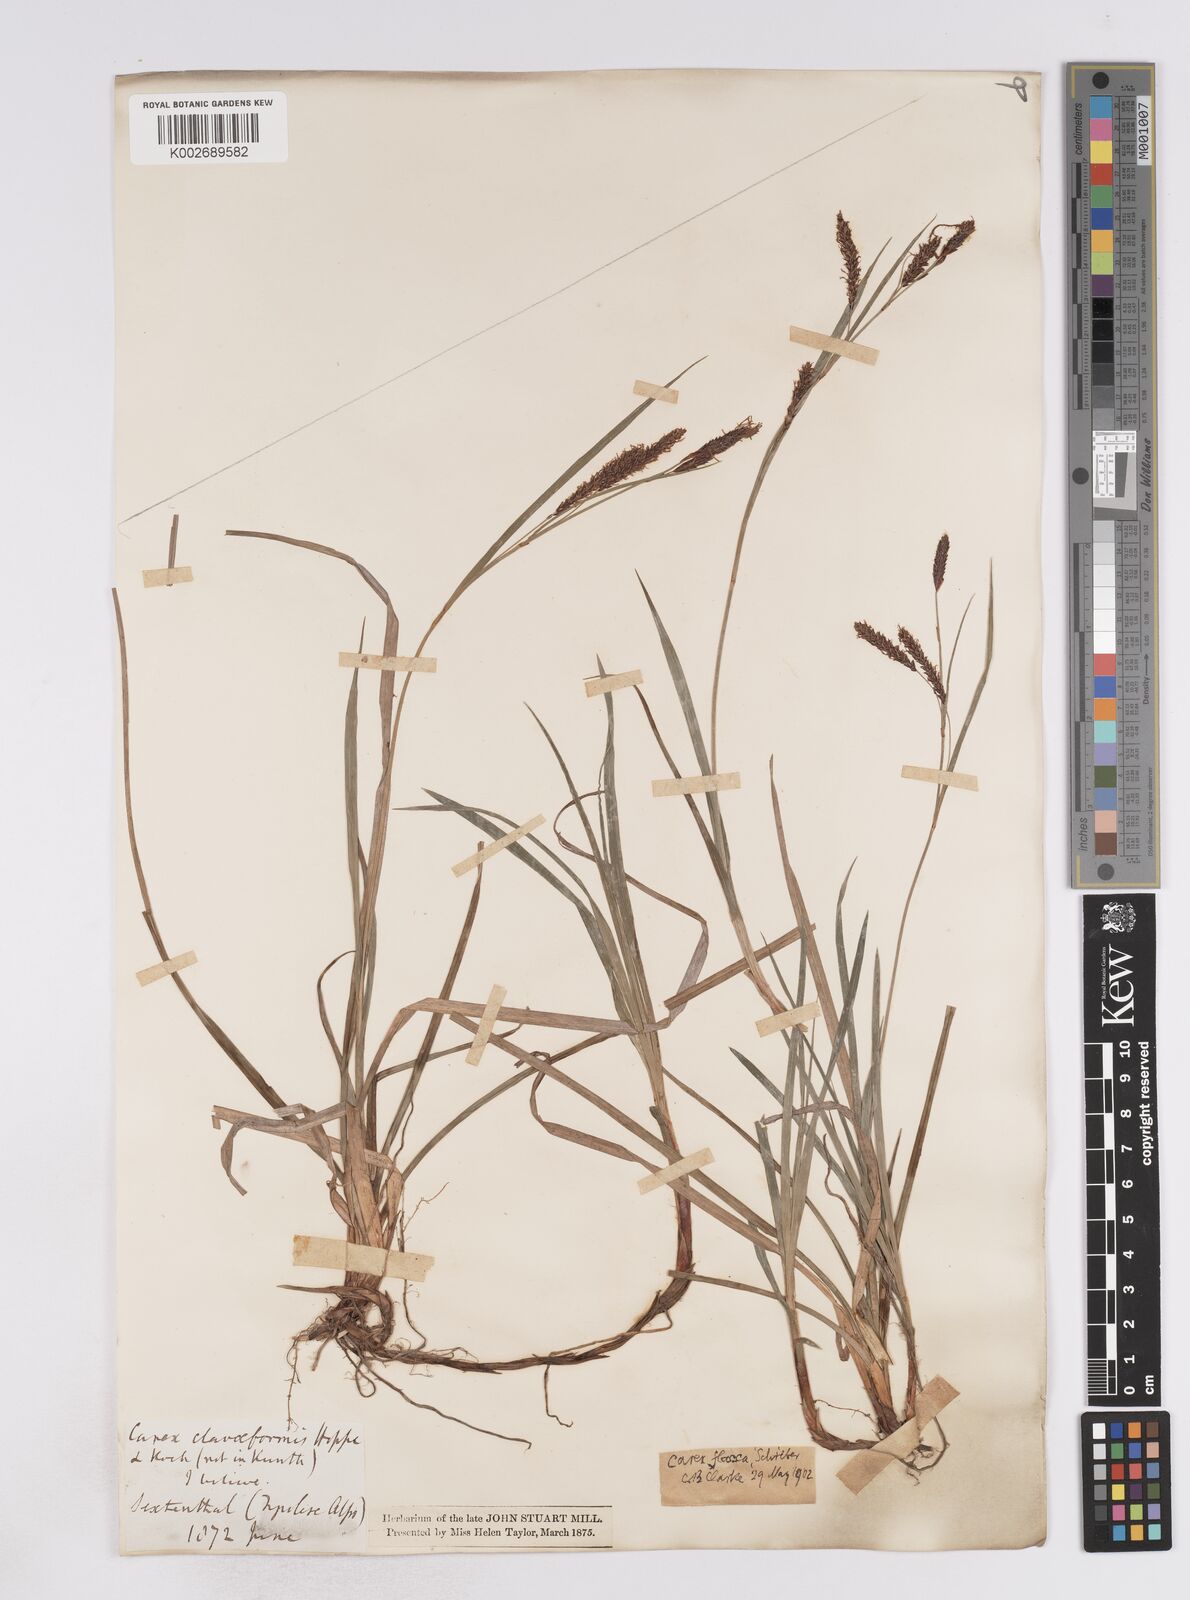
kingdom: Plantae
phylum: Tracheophyta
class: Liliopsida
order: Poales
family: Cyperaceae
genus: Carex
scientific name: Carex flacca
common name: Glaucous sedge
